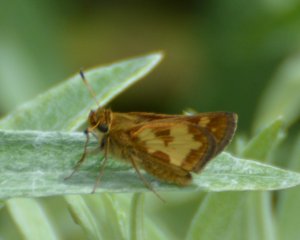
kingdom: Animalia
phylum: Arthropoda
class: Insecta
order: Lepidoptera
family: Hesperiidae
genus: Polites
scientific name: Polites coras
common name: Peck's Skipper
